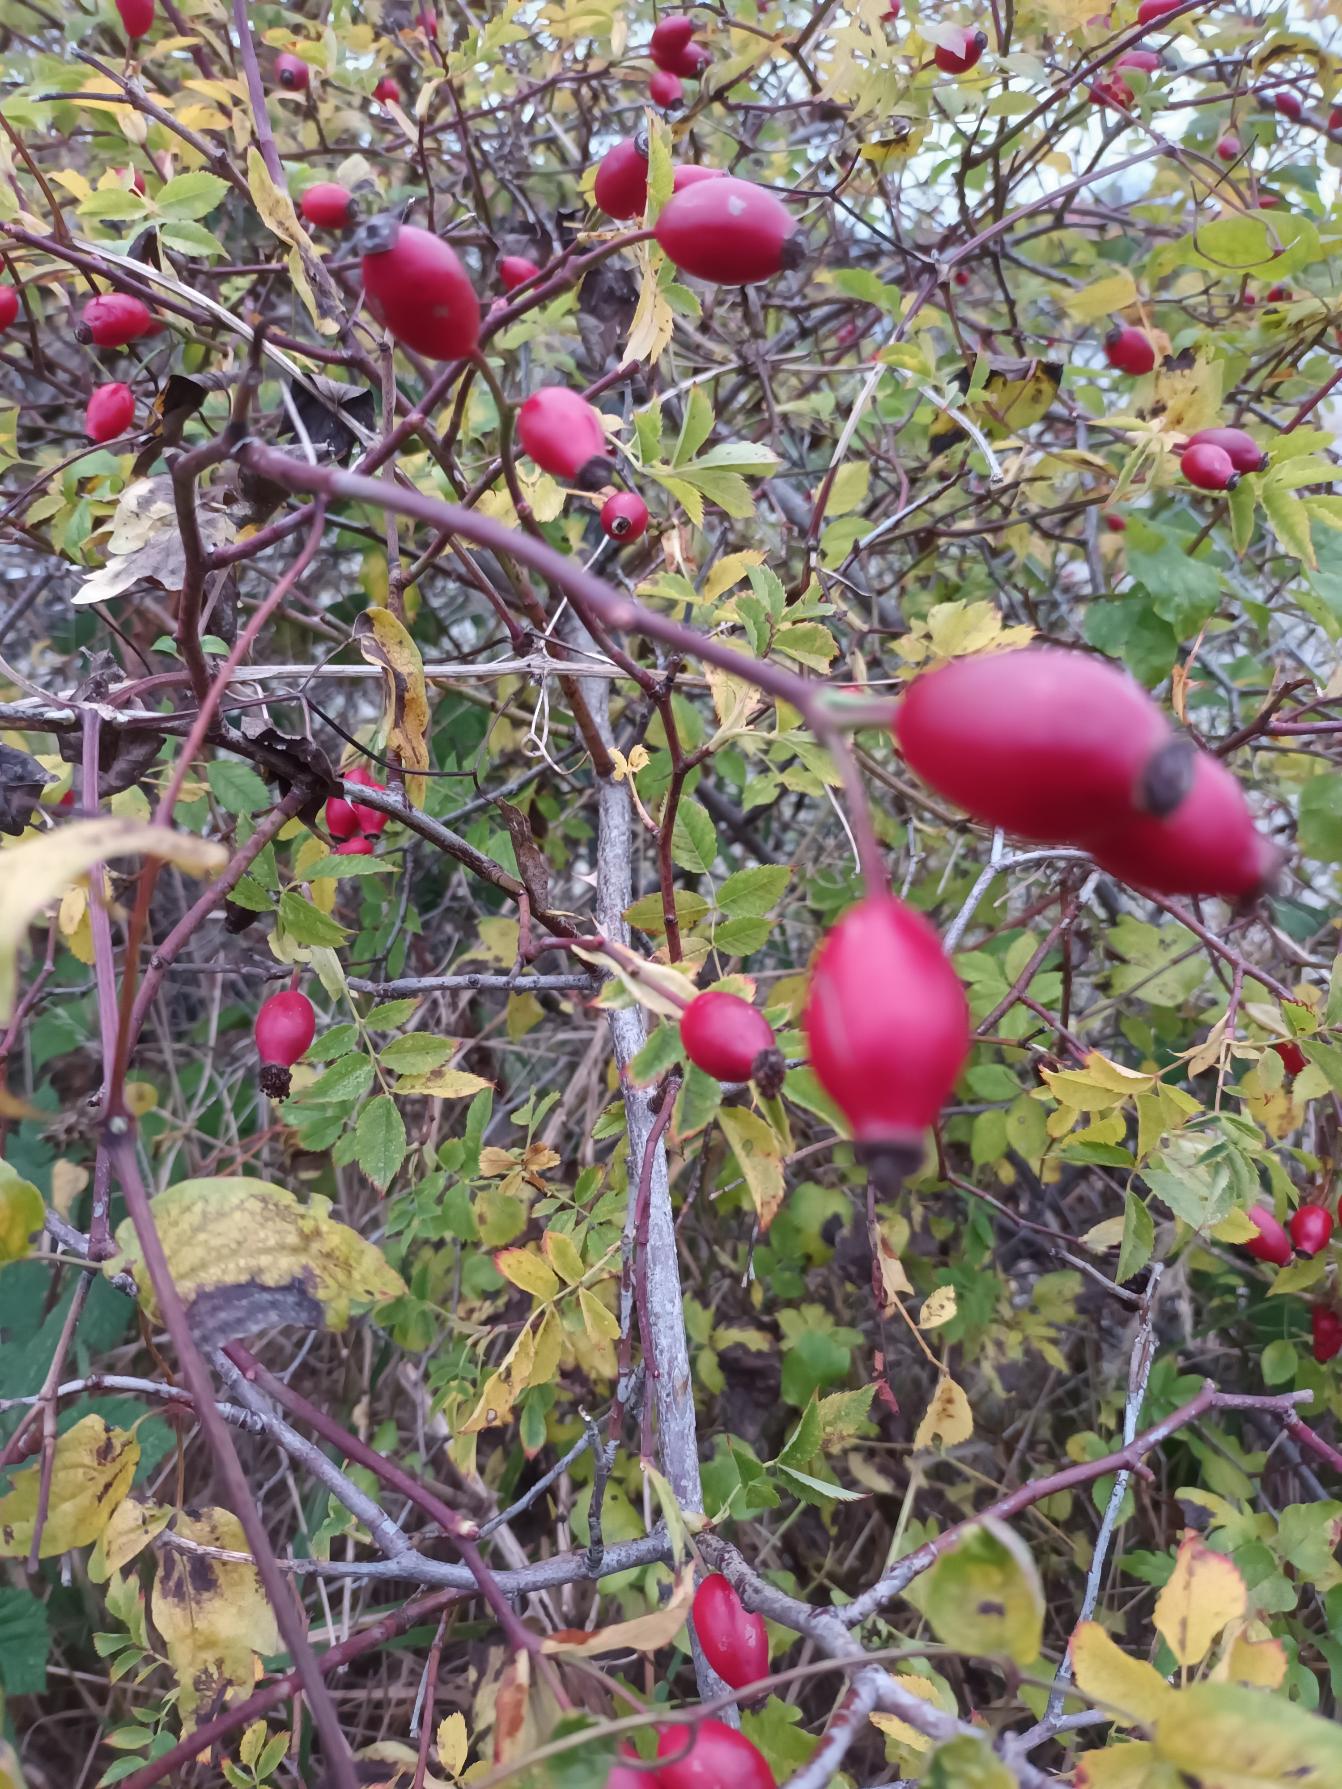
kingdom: Plantae
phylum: Tracheophyta
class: Magnoliopsida
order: Rosales
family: Rosaceae
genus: Rosa
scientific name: Rosa canina
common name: Glat hunde-rose
